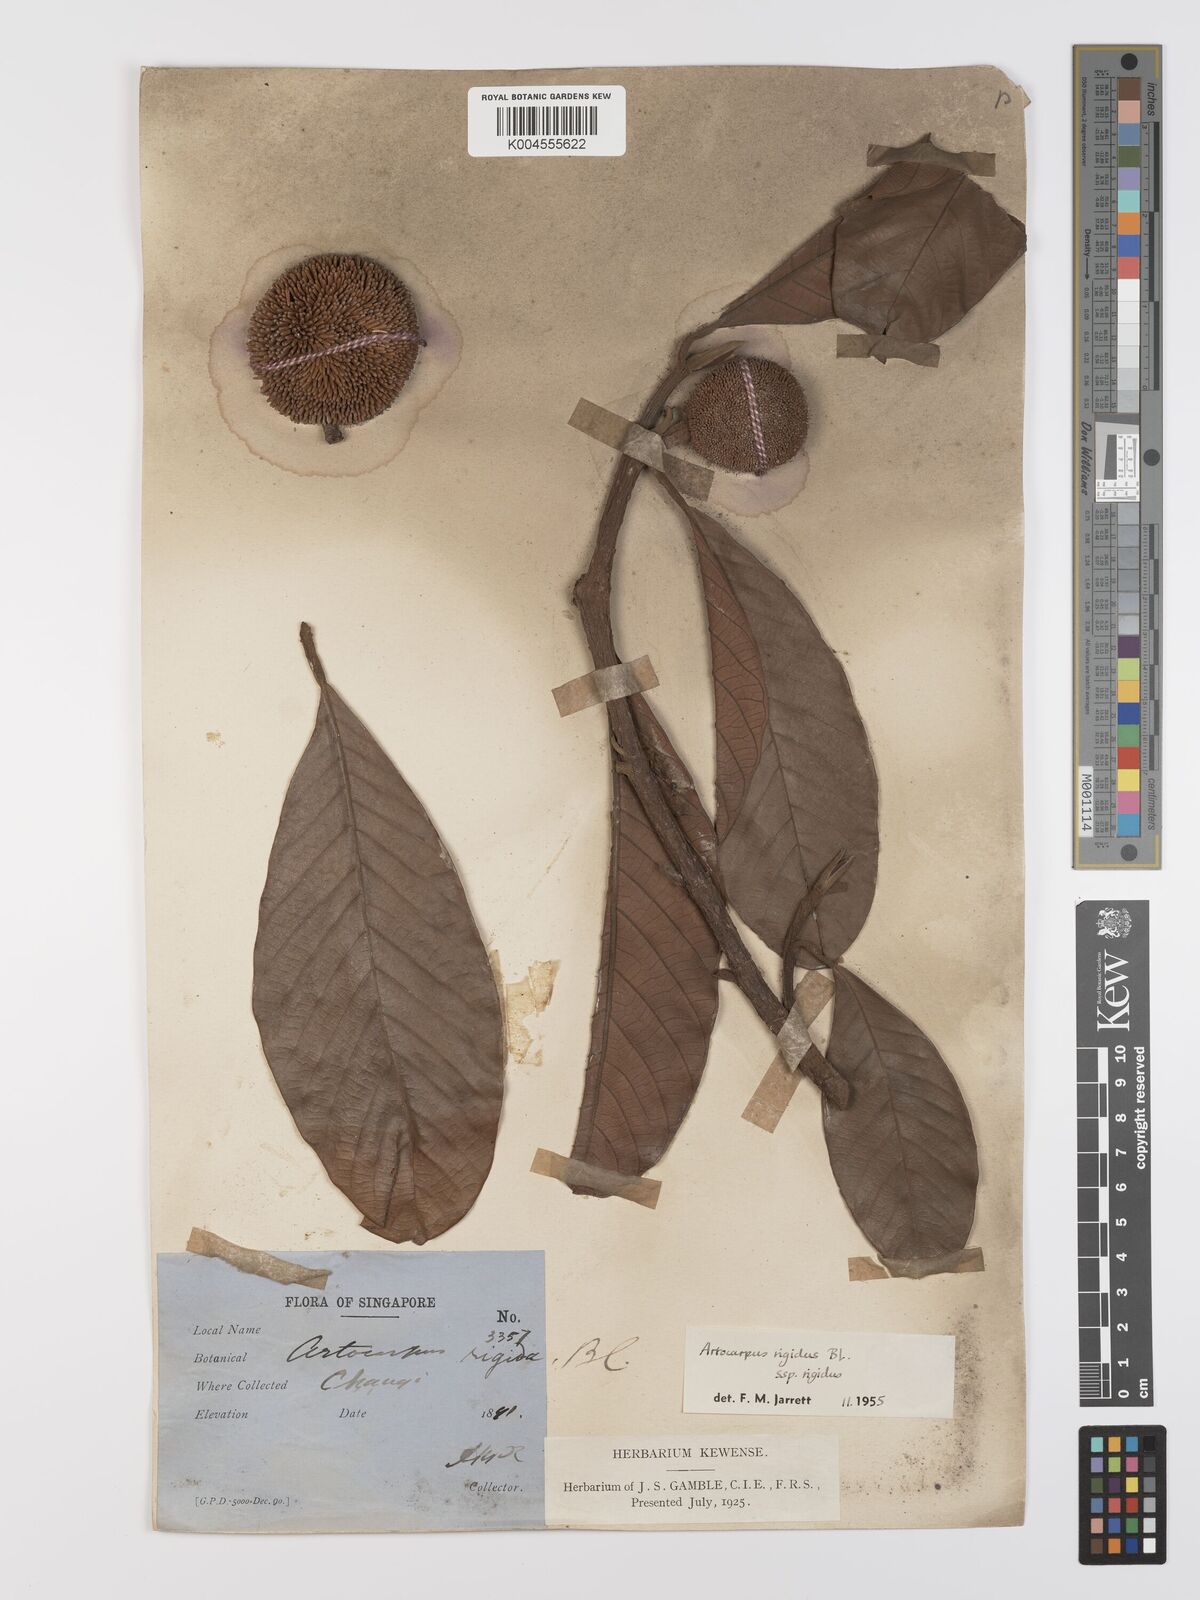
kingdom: Plantae
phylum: Tracheophyta
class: Magnoliopsida
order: Rosales
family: Moraceae
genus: Artocarpus
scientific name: Artocarpus
